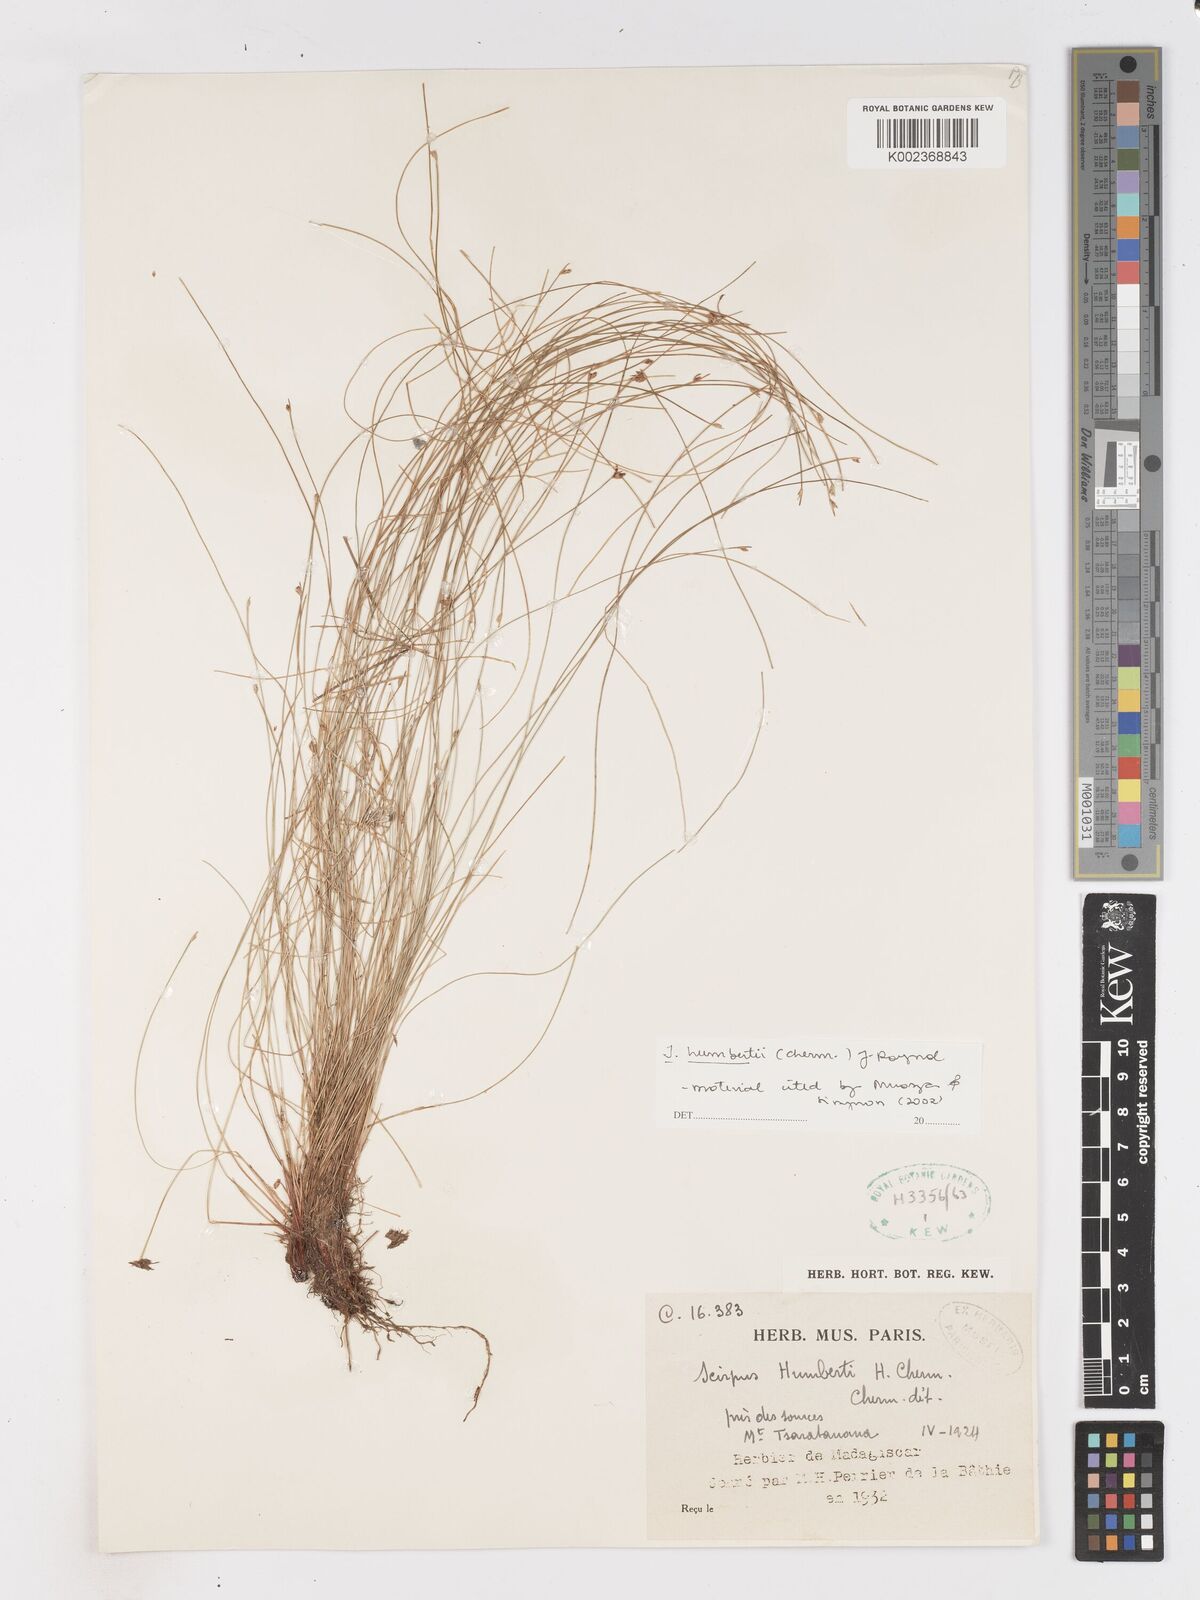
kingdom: Plantae
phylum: Tracheophyta
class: Liliopsida
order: Poales
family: Cyperaceae
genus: Isolepis
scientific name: Isolepis humbertii
